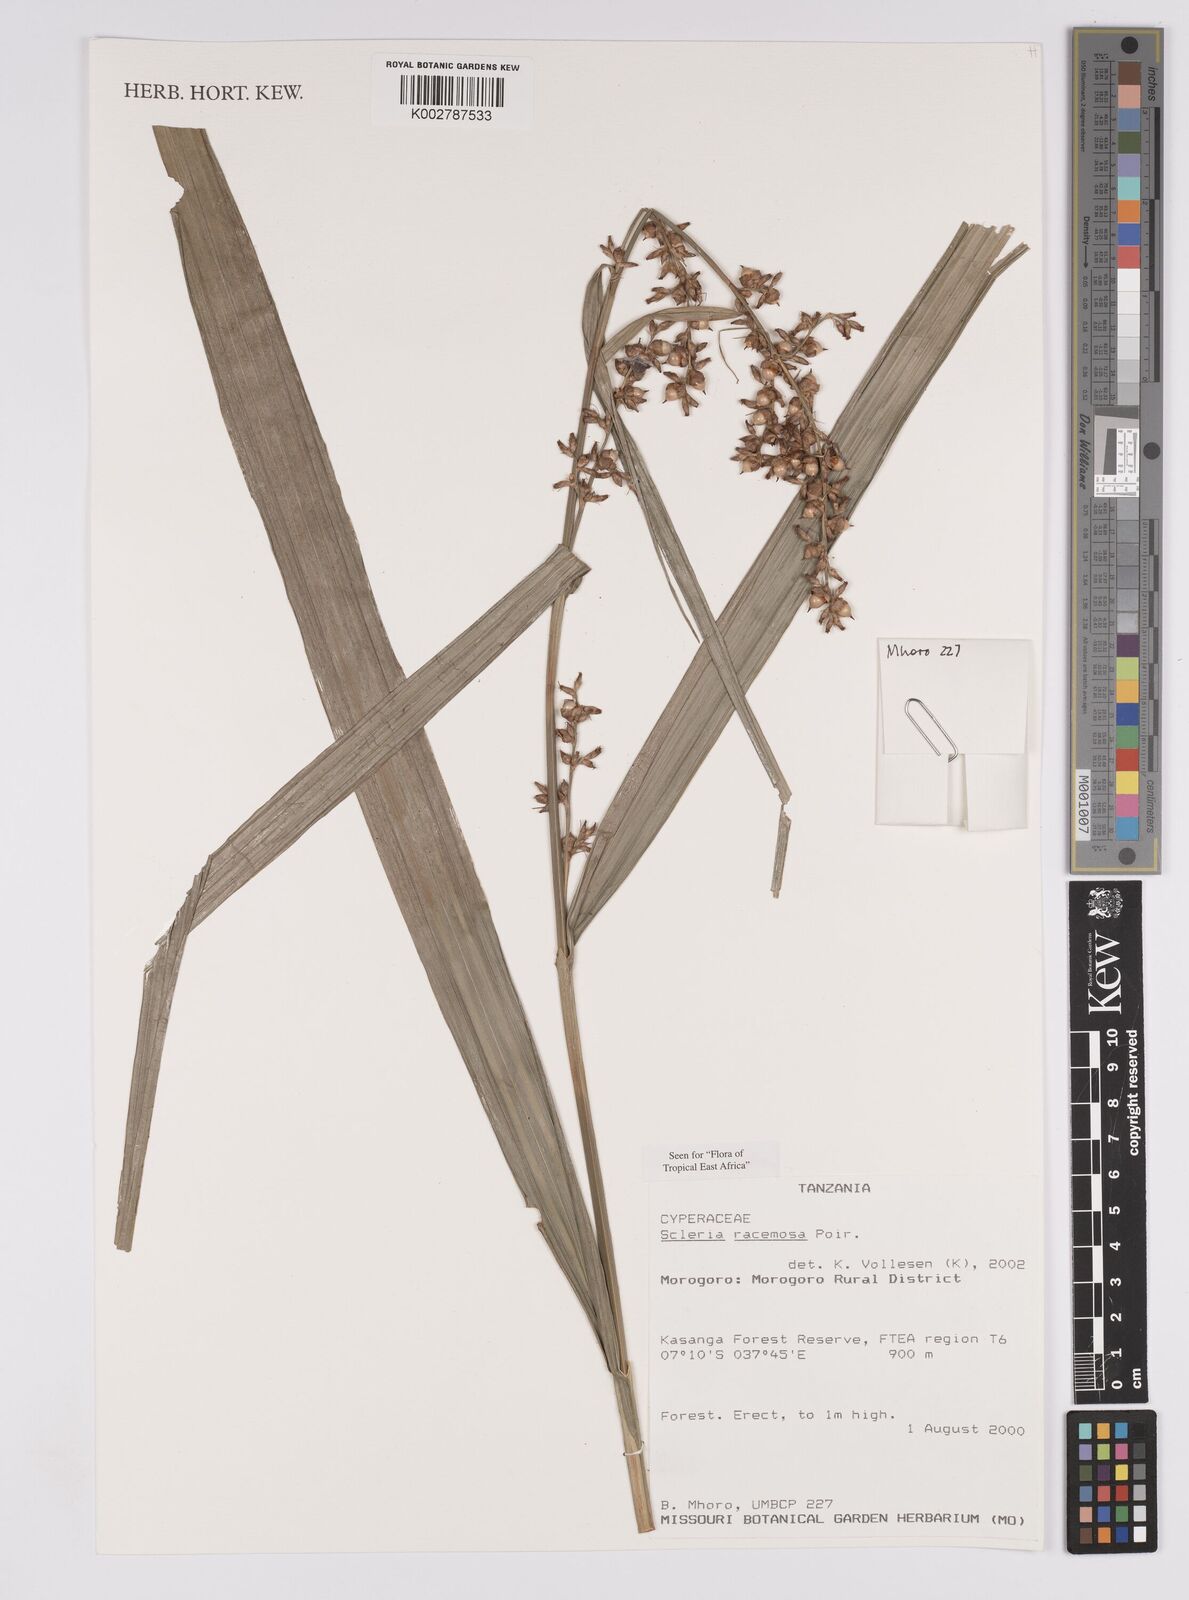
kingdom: Plantae
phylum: Tracheophyta
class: Liliopsida
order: Poales
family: Cyperaceae
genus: Scleria
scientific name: Scleria racemosa
